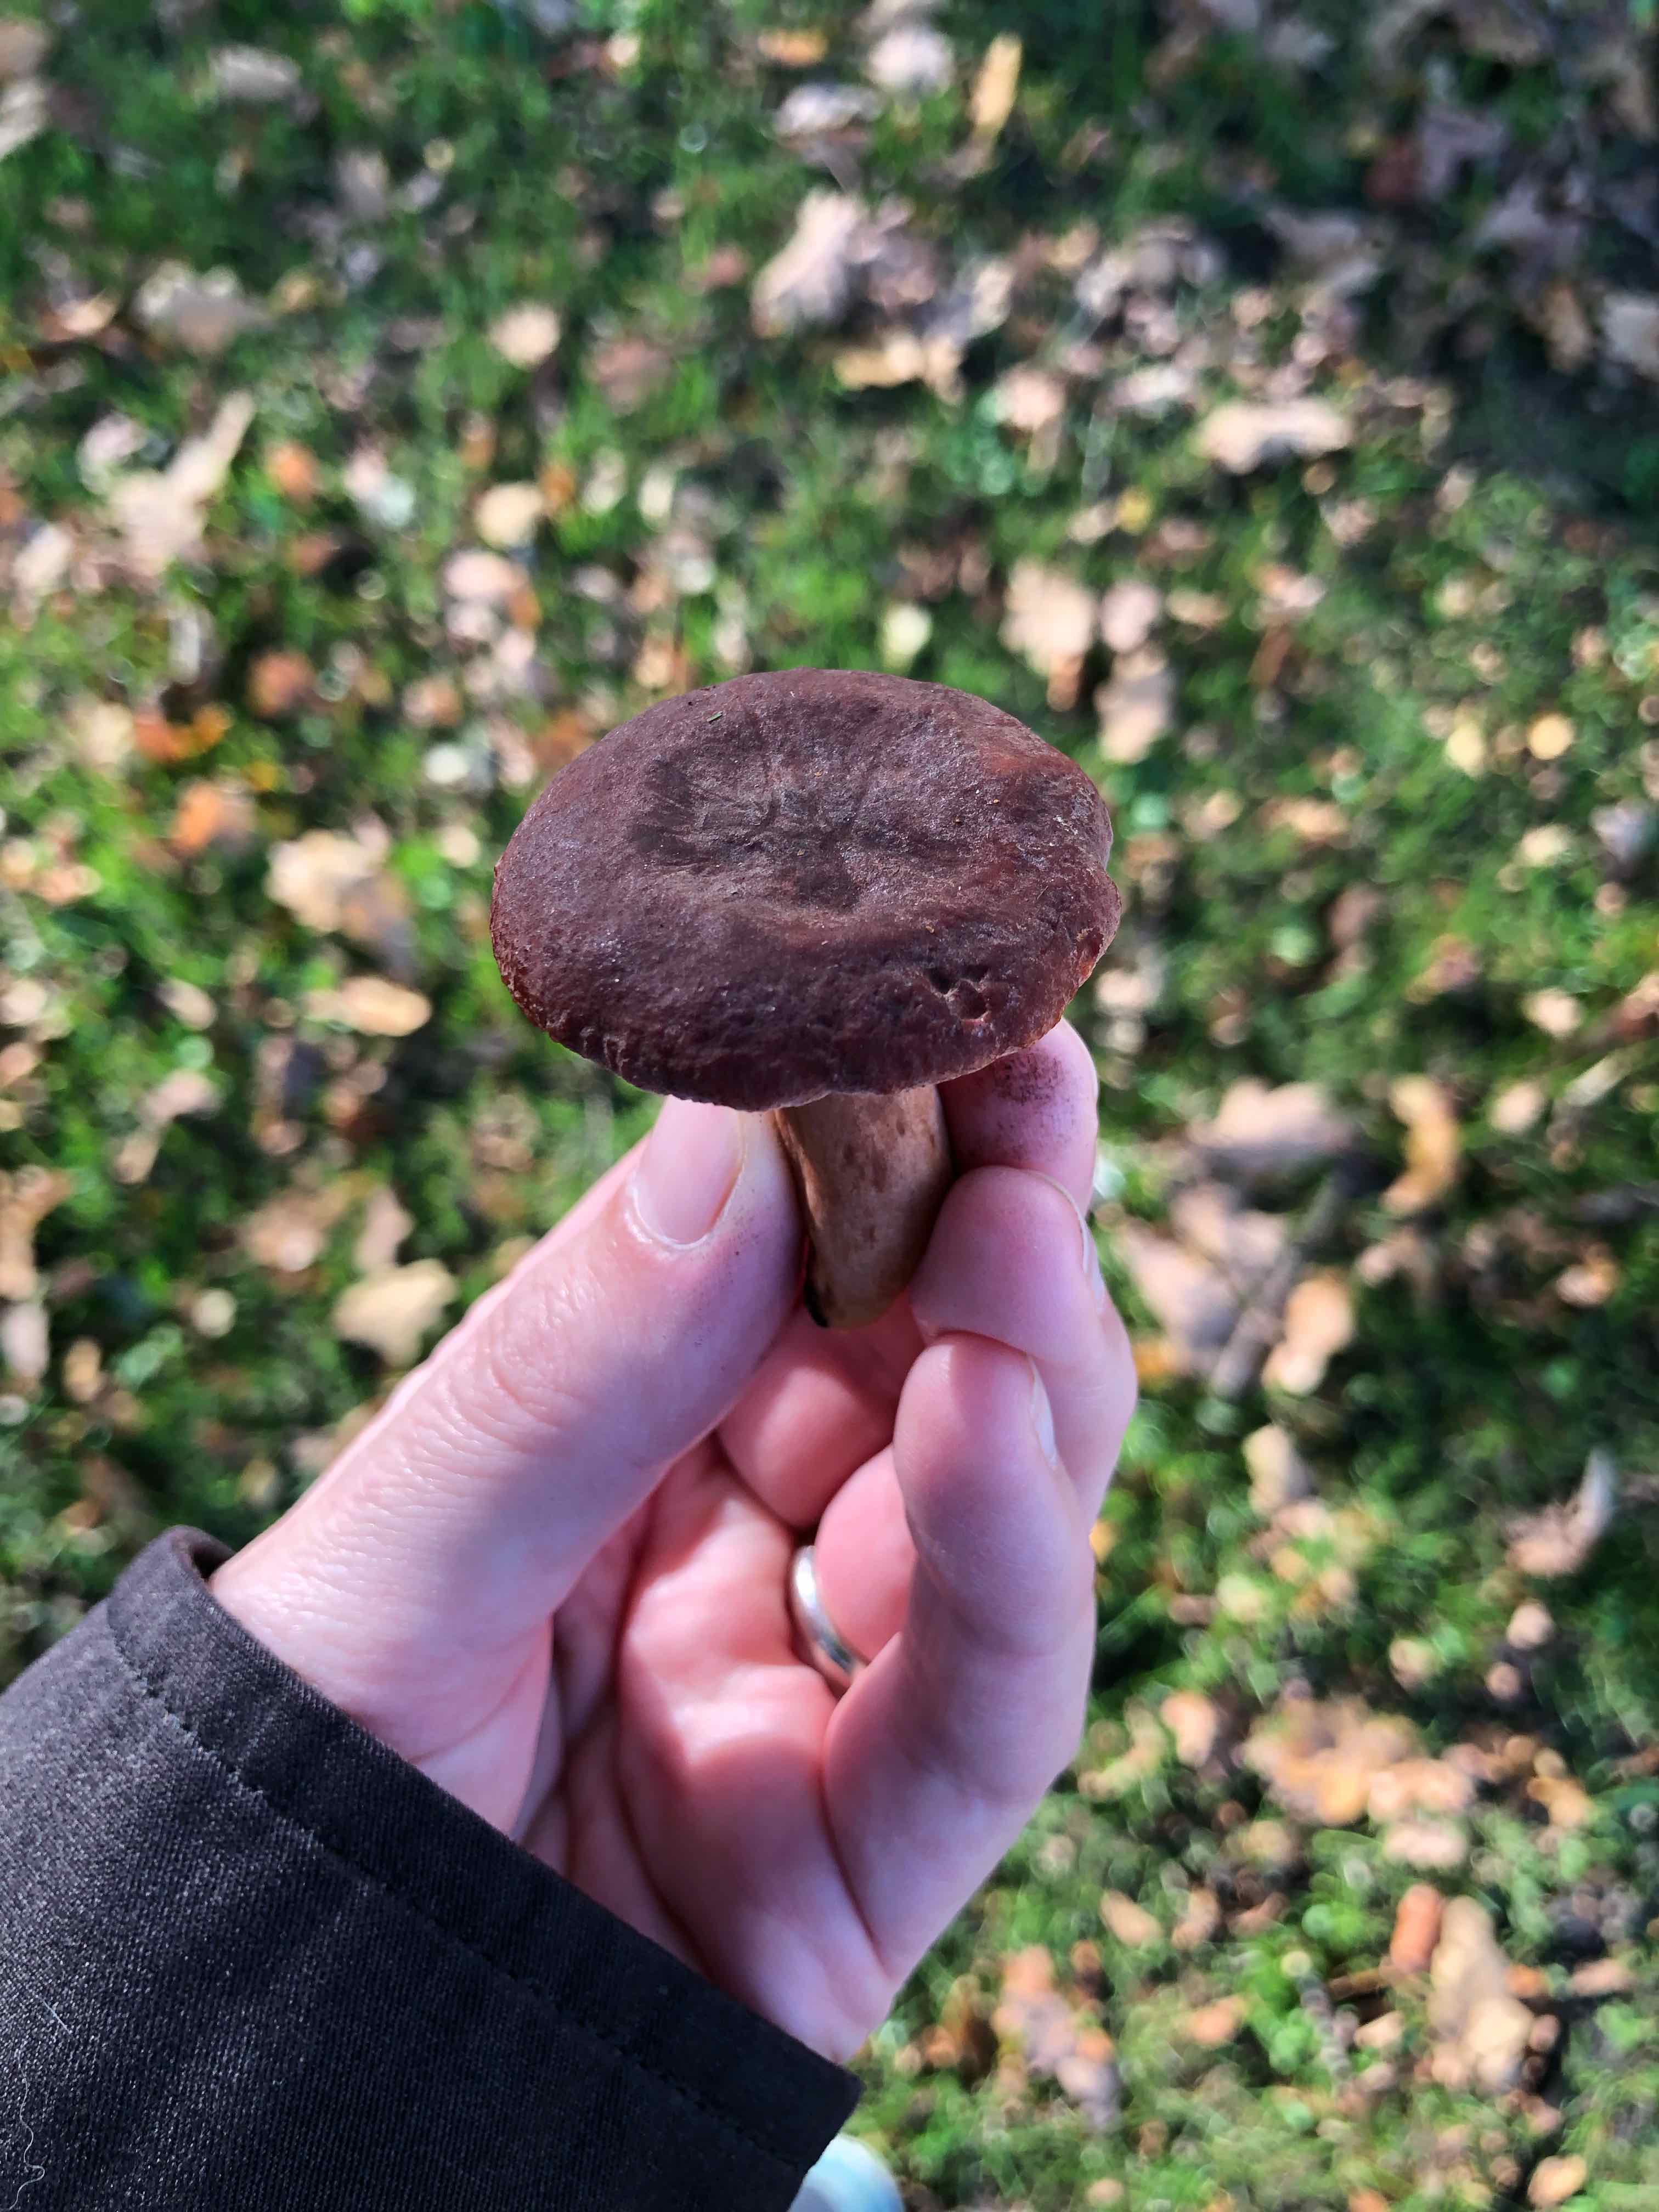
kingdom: Fungi
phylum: Basidiomycota
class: Agaricomycetes
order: Russulales
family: Russulaceae
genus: Lactarius
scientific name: Lactarius camphoratus
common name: kamfer-mælkehat
